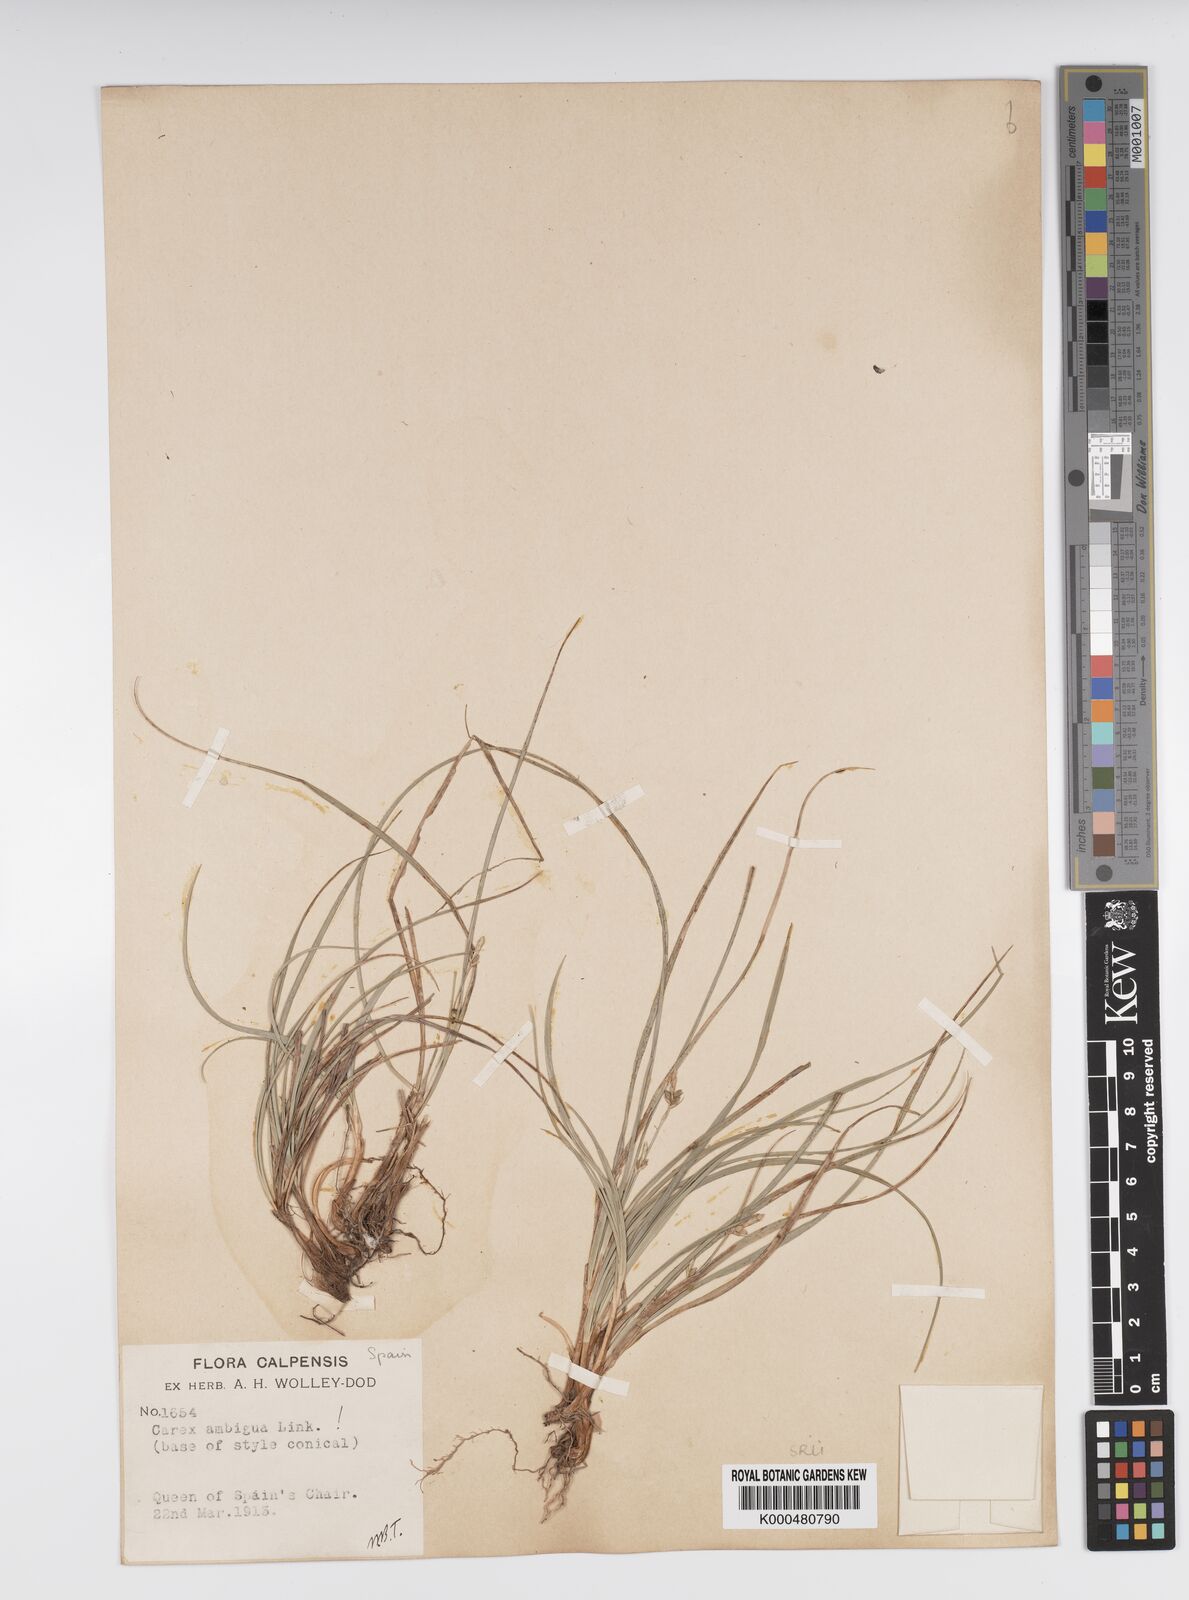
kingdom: Plantae
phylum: Tracheophyta
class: Liliopsida
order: Poales
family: Cyperaceae
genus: Carex
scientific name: Carex
